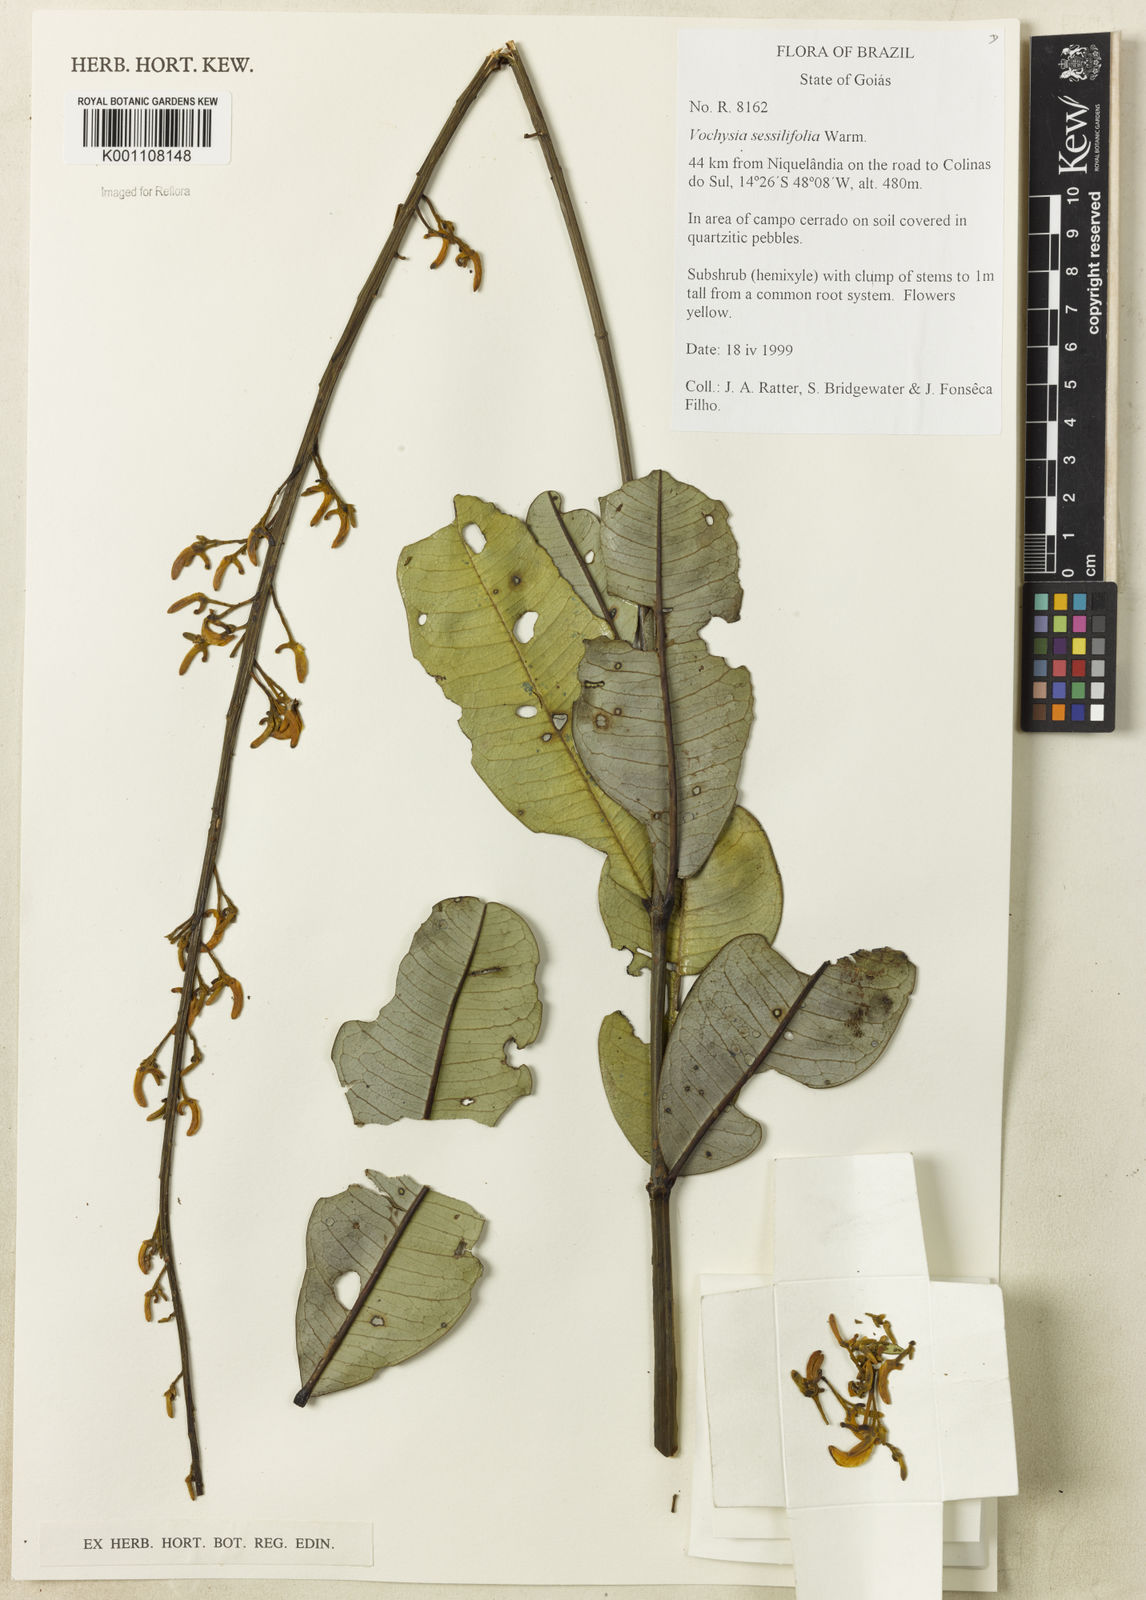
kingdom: Plantae
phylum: Tracheophyta
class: Magnoliopsida
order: Myrtales
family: Vochysiaceae
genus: Vochysia
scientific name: Vochysia sessilifolia
